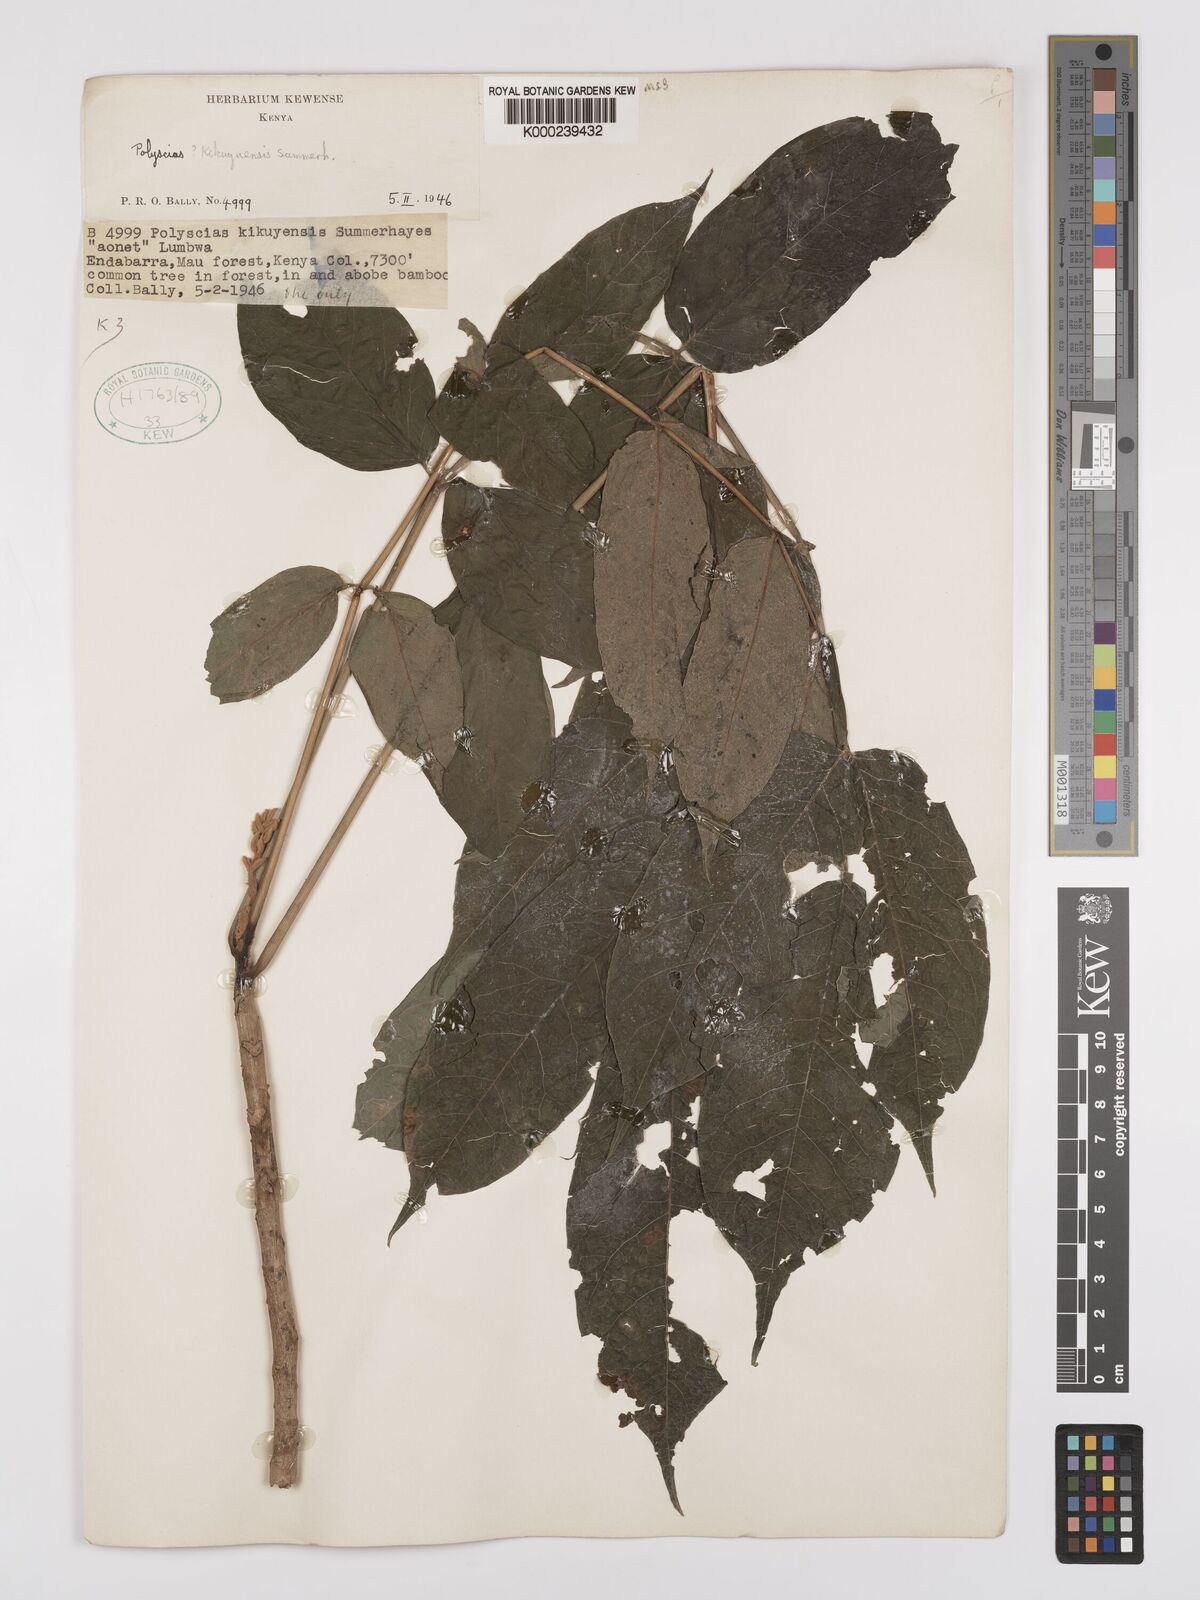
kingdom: Plantae
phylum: Tracheophyta
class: Magnoliopsida
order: Apiales
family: Araliaceae
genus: Polyscias
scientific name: Polyscias kikuyuensis
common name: Parasol tree
